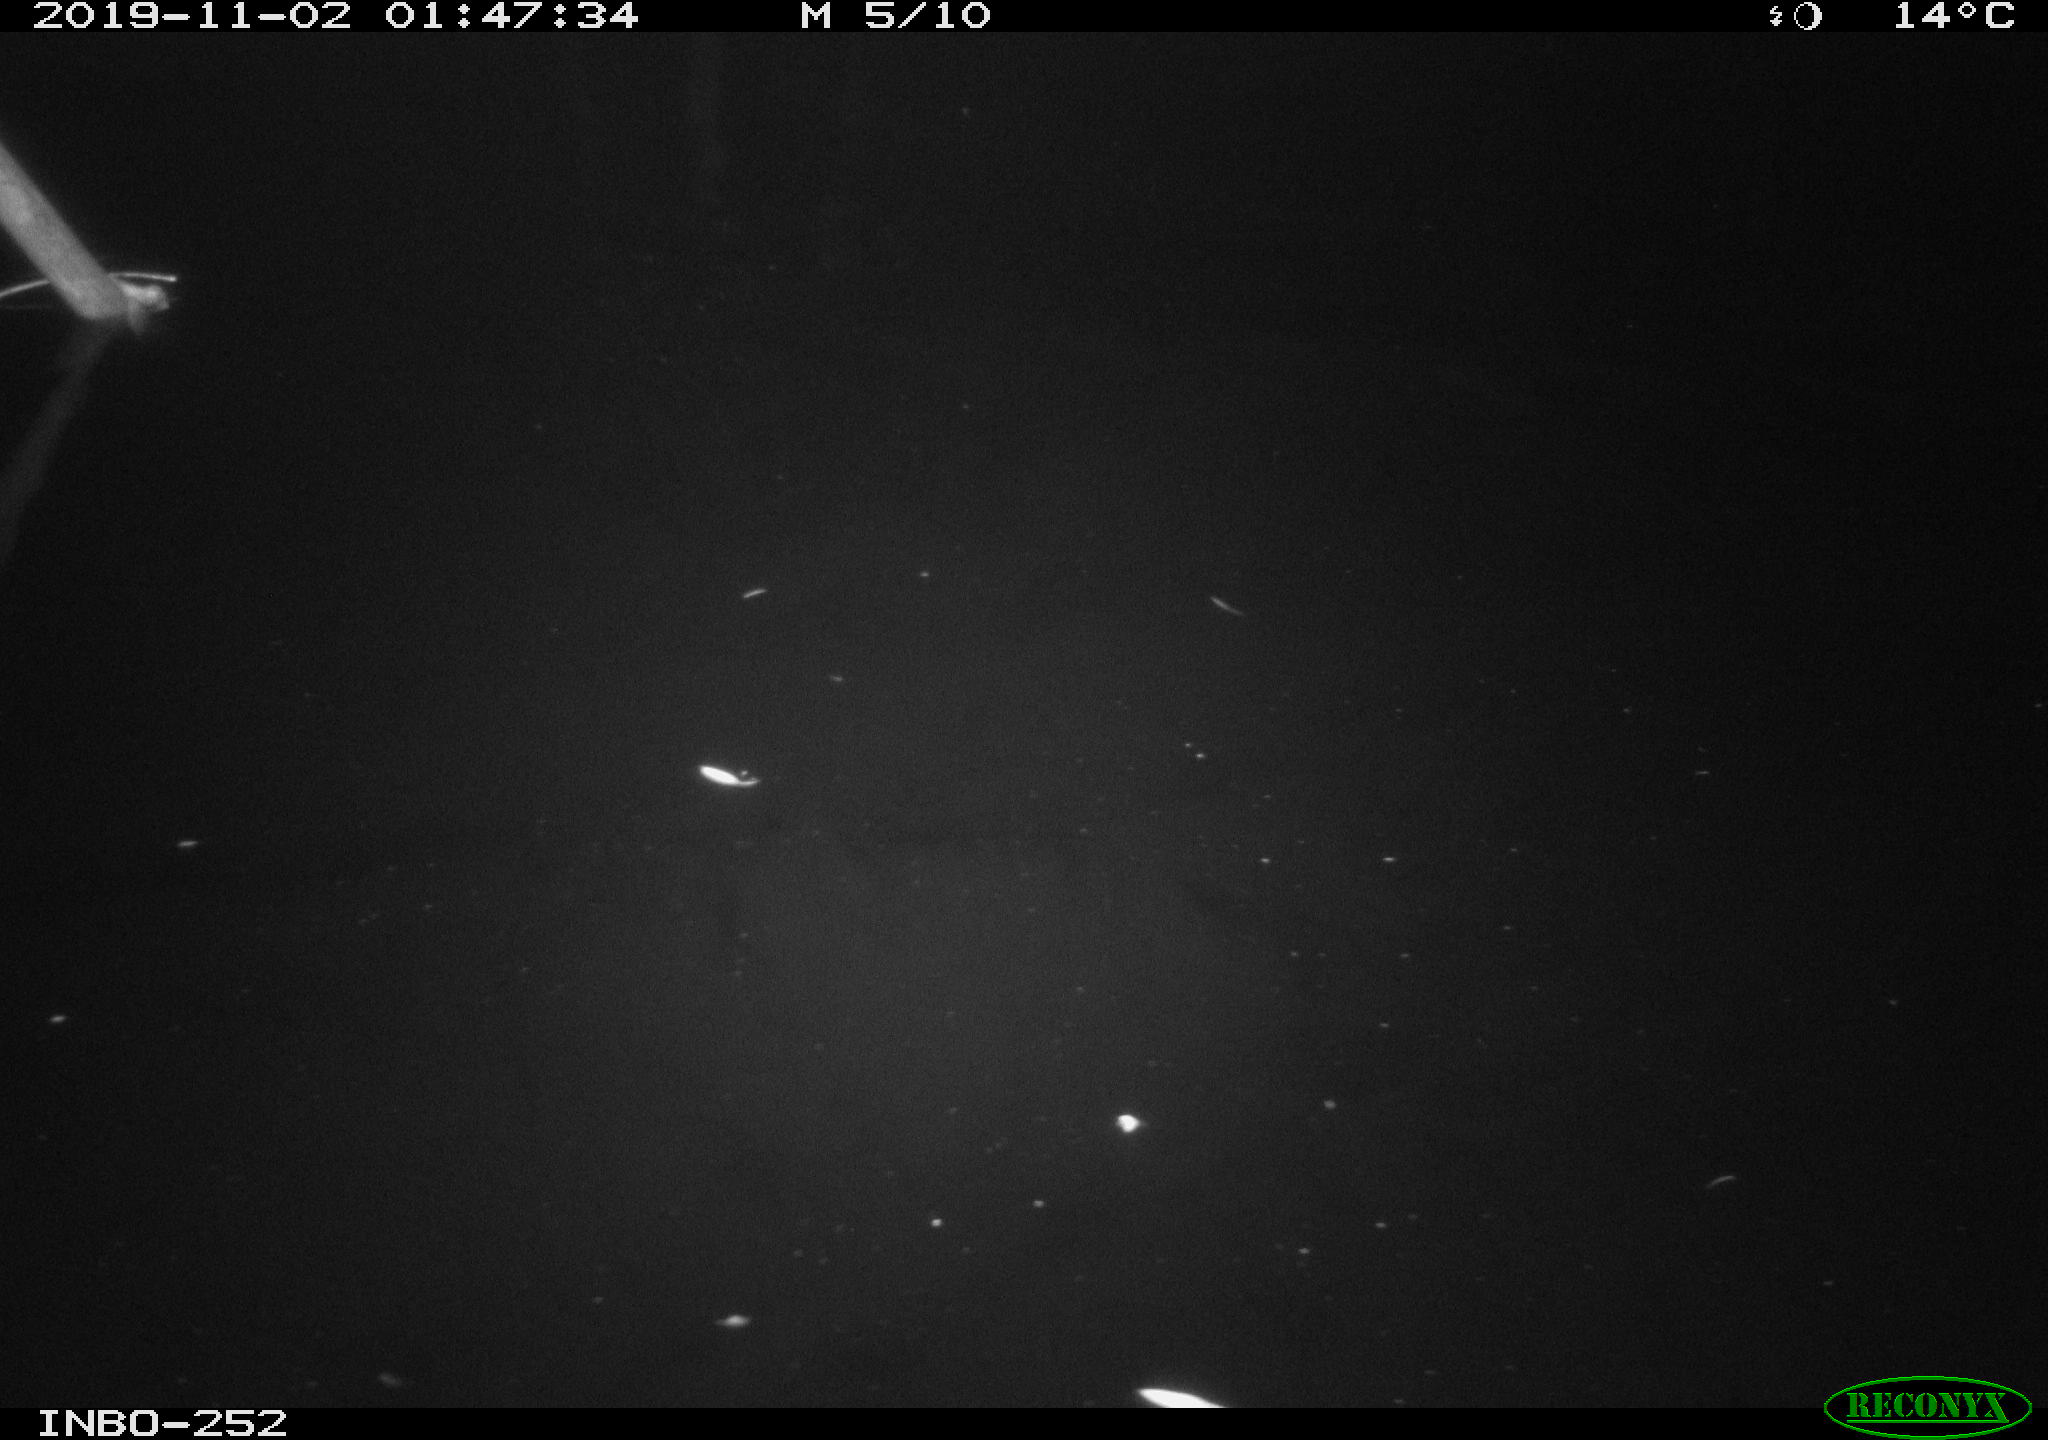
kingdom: Animalia
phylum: Chordata
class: Aves
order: Anseriformes
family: Anatidae
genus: Anas
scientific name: Anas platyrhynchos
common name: Mallard
